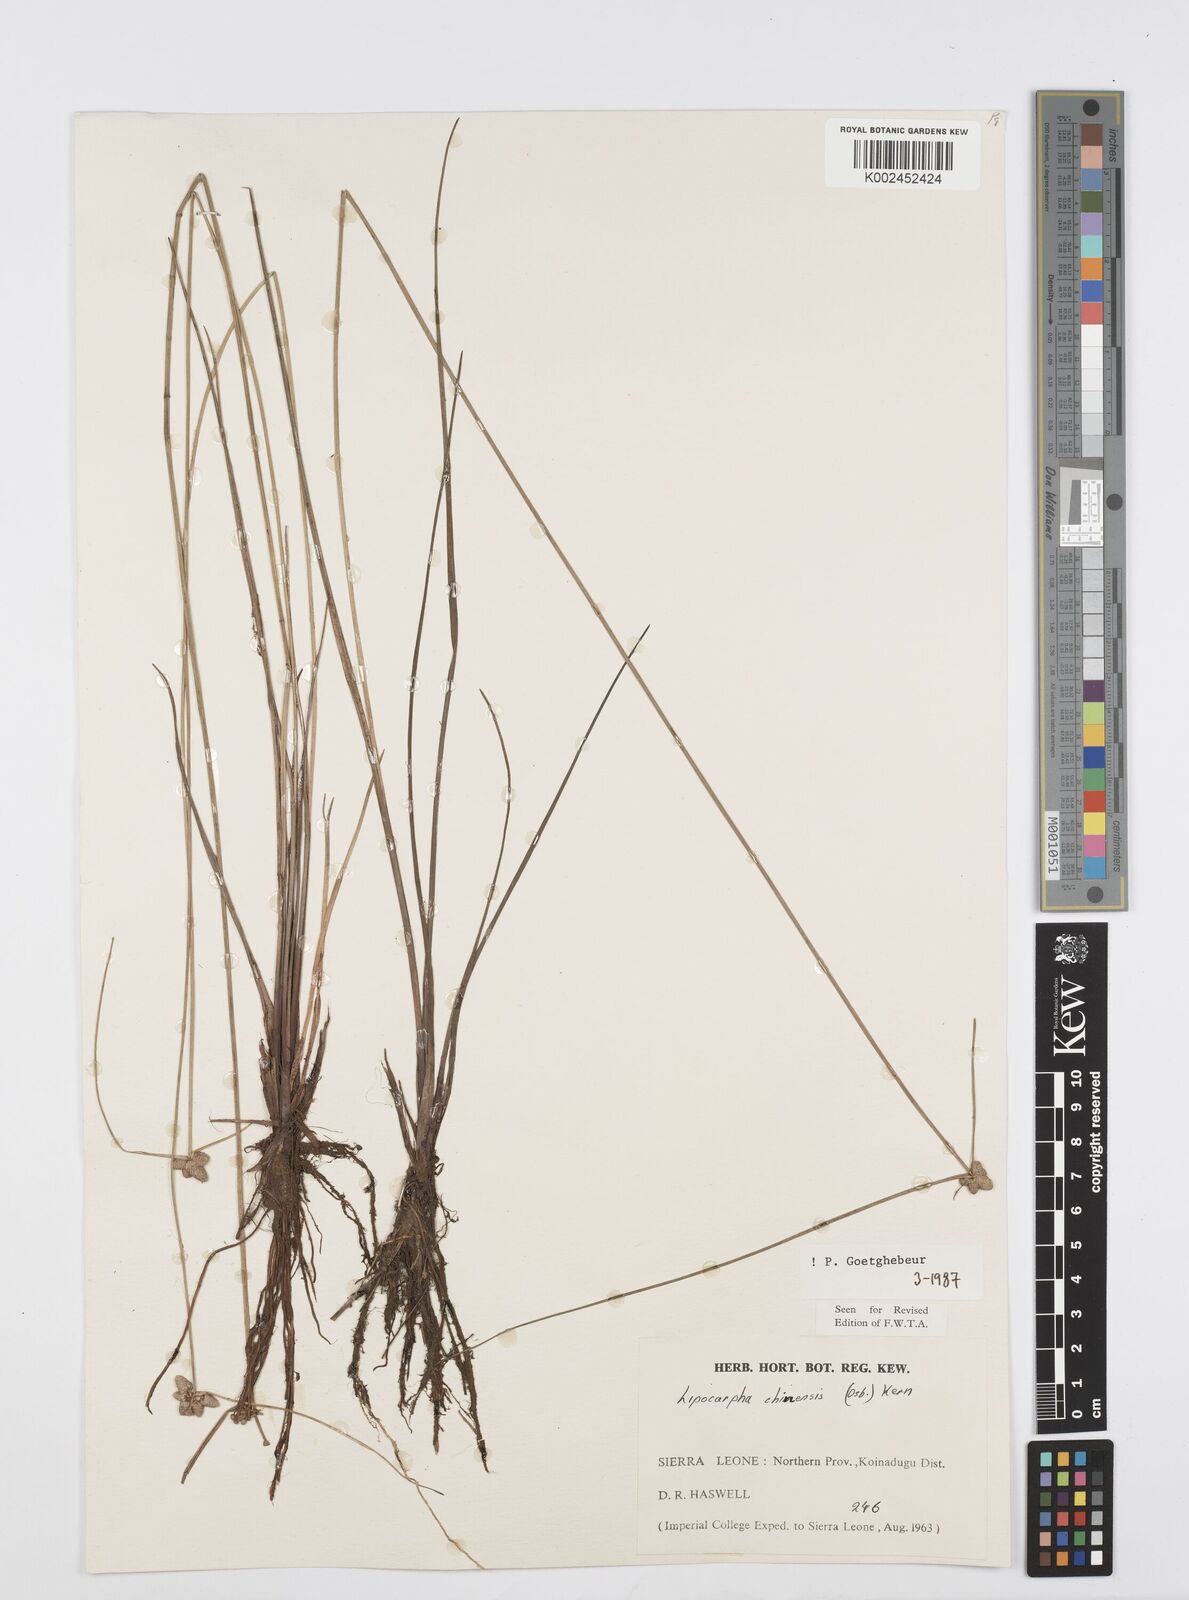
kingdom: Plantae
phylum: Tracheophyta
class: Liliopsida
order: Poales
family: Cyperaceae
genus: Cyperus
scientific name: Cyperus albescens
